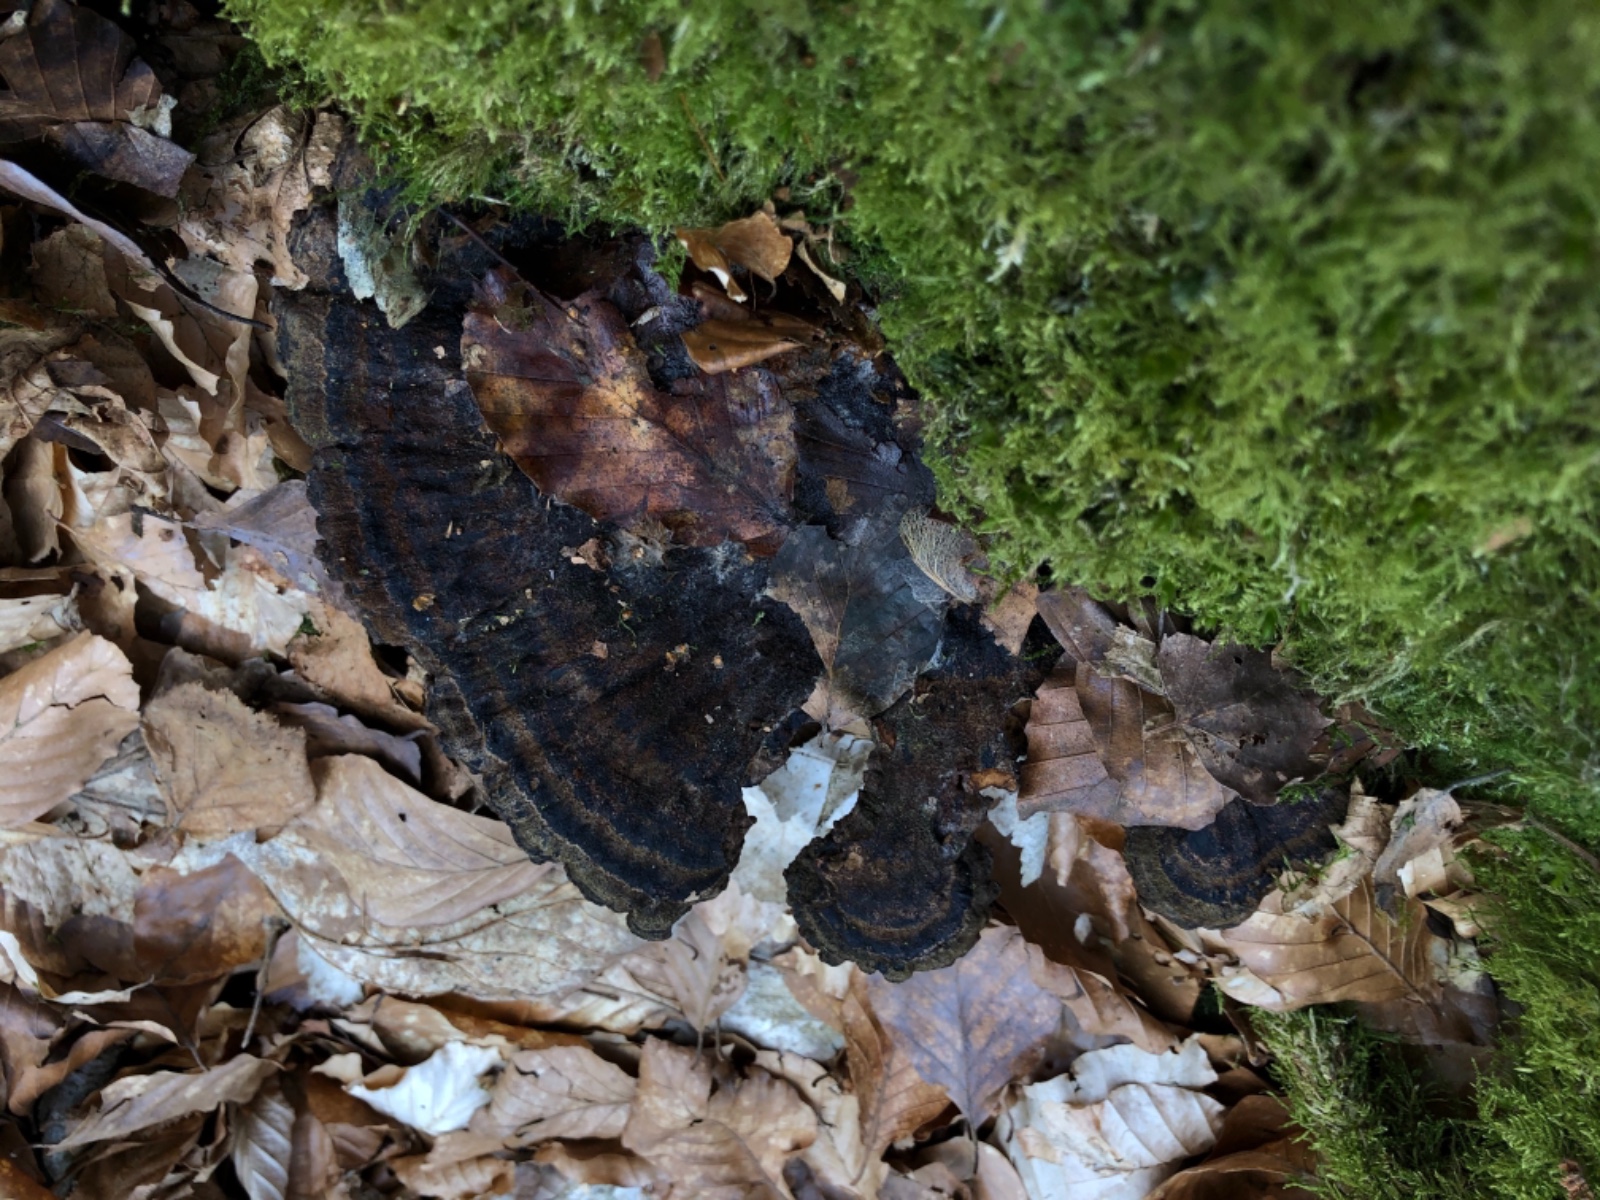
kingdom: Fungi
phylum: Basidiomycota
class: Agaricomycetes
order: Polyporales
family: Ischnodermataceae
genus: Ischnoderma
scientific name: Ischnoderma benzoinum
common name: gran-tjæreporesvamp
